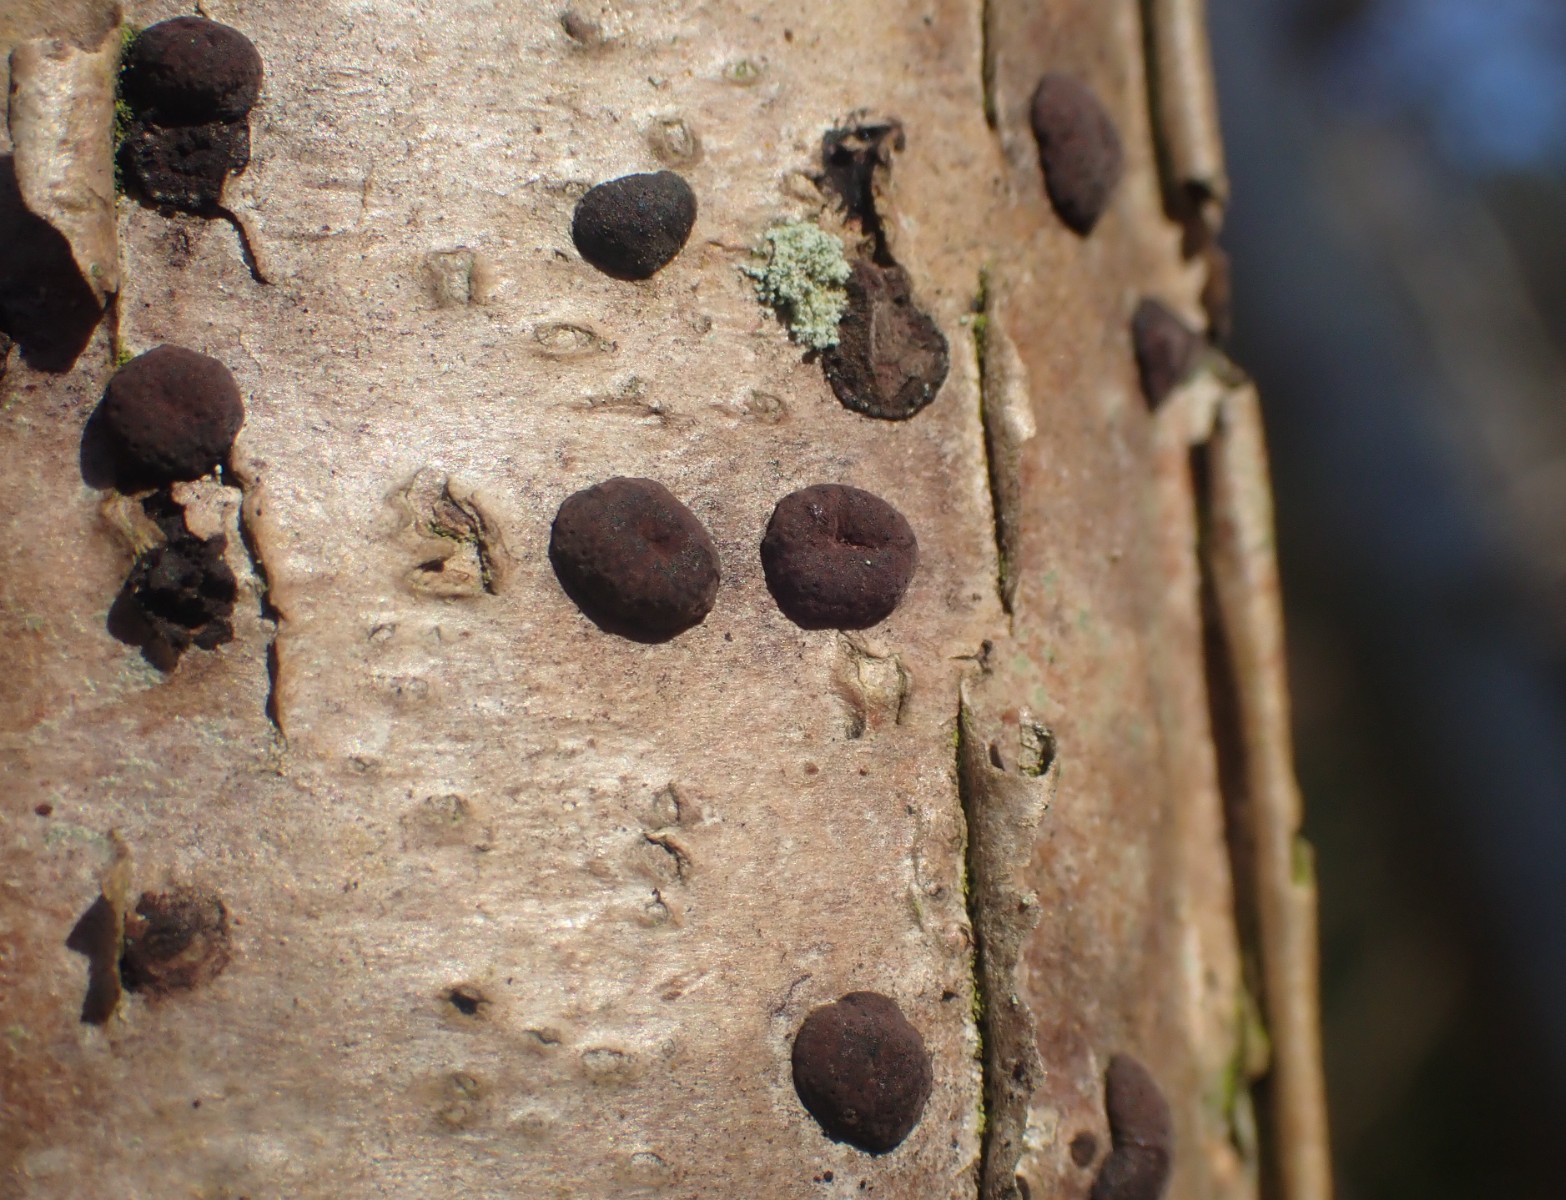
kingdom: Fungi
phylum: Ascomycota
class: Sordariomycetes
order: Xylariales
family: Hypoxylaceae
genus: Hypoxylon
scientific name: Hypoxylon fuscum
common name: kegleformet kulbær
